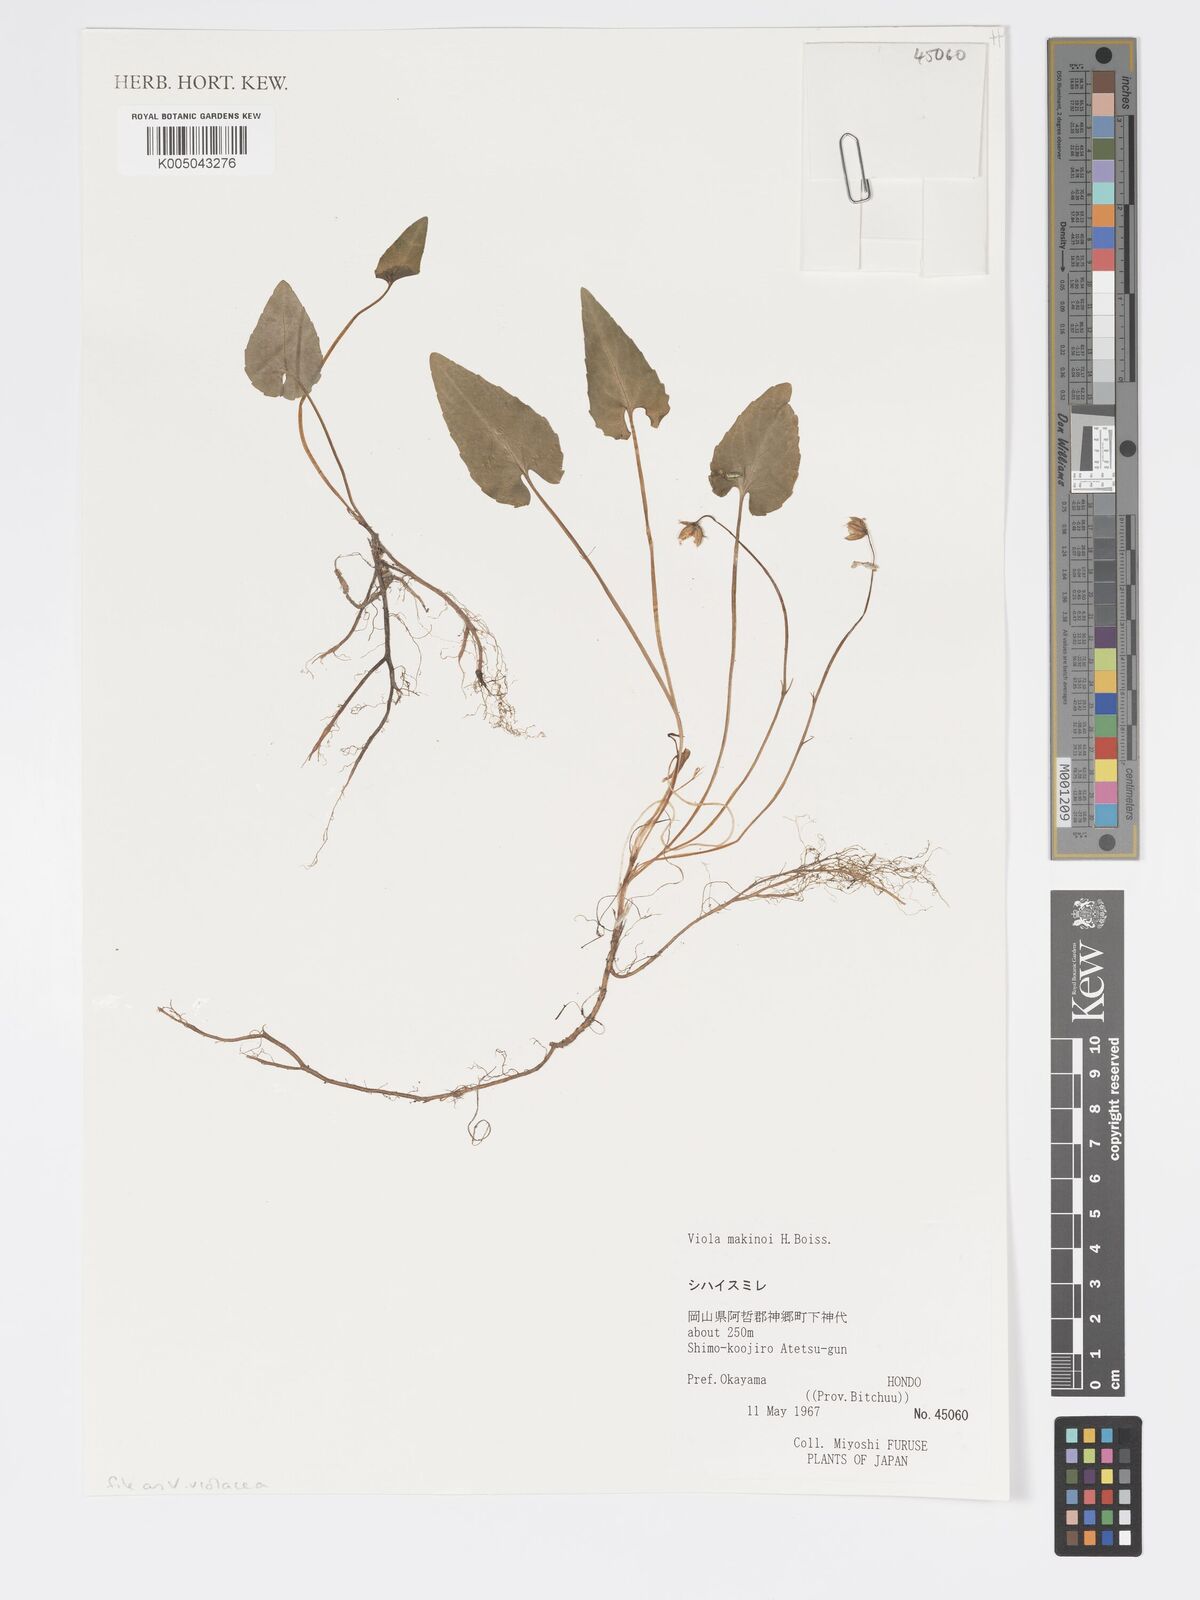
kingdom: Plantae
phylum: Tracheophyta
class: Magnoliopsida
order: Malpighiales
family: Violaceae
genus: Viola
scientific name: Viola violacea
